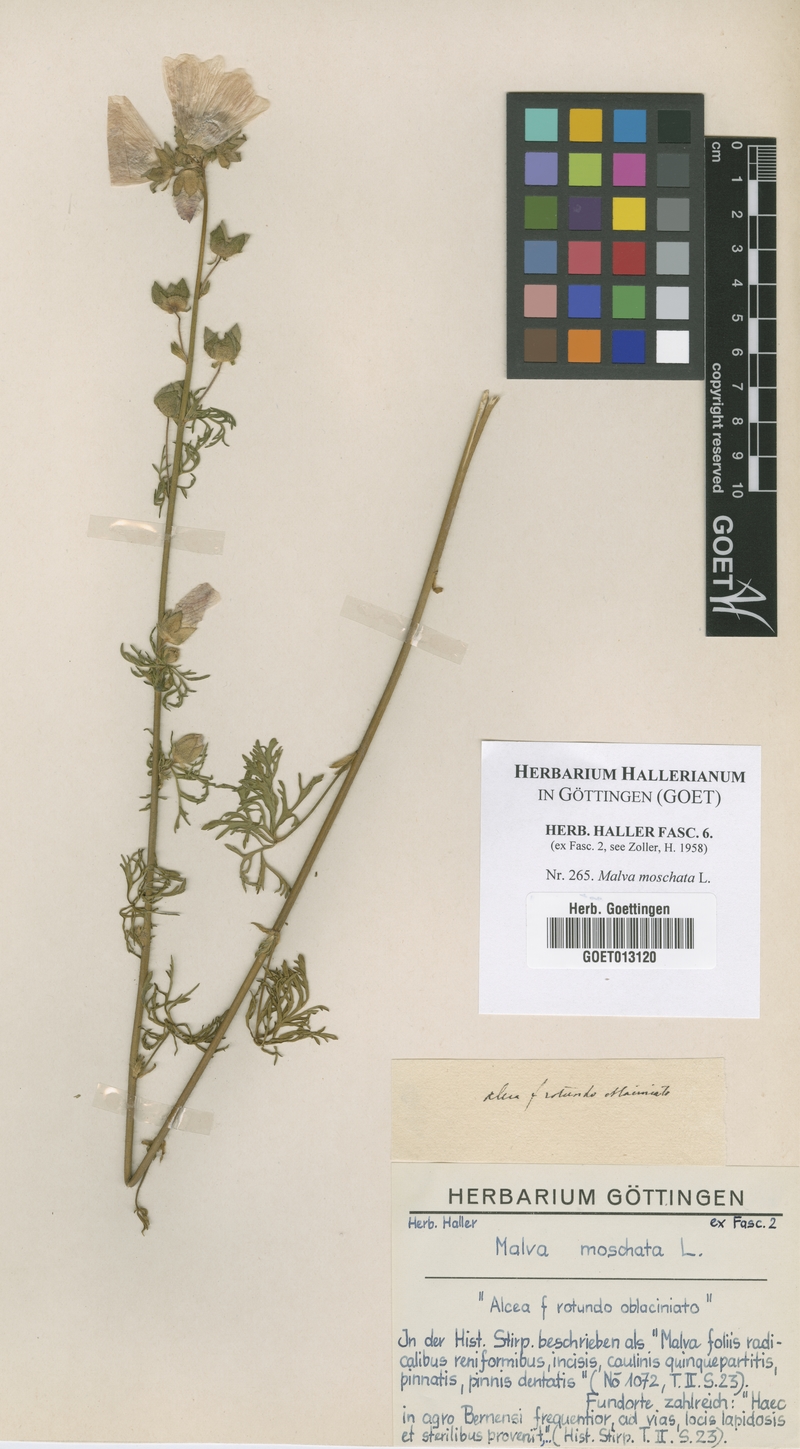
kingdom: Plantae
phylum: Tracheophyta
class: Magnoliopsida
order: Malvales
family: Malvaceae
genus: Malva
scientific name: Malva moschata
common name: Musk mallow
